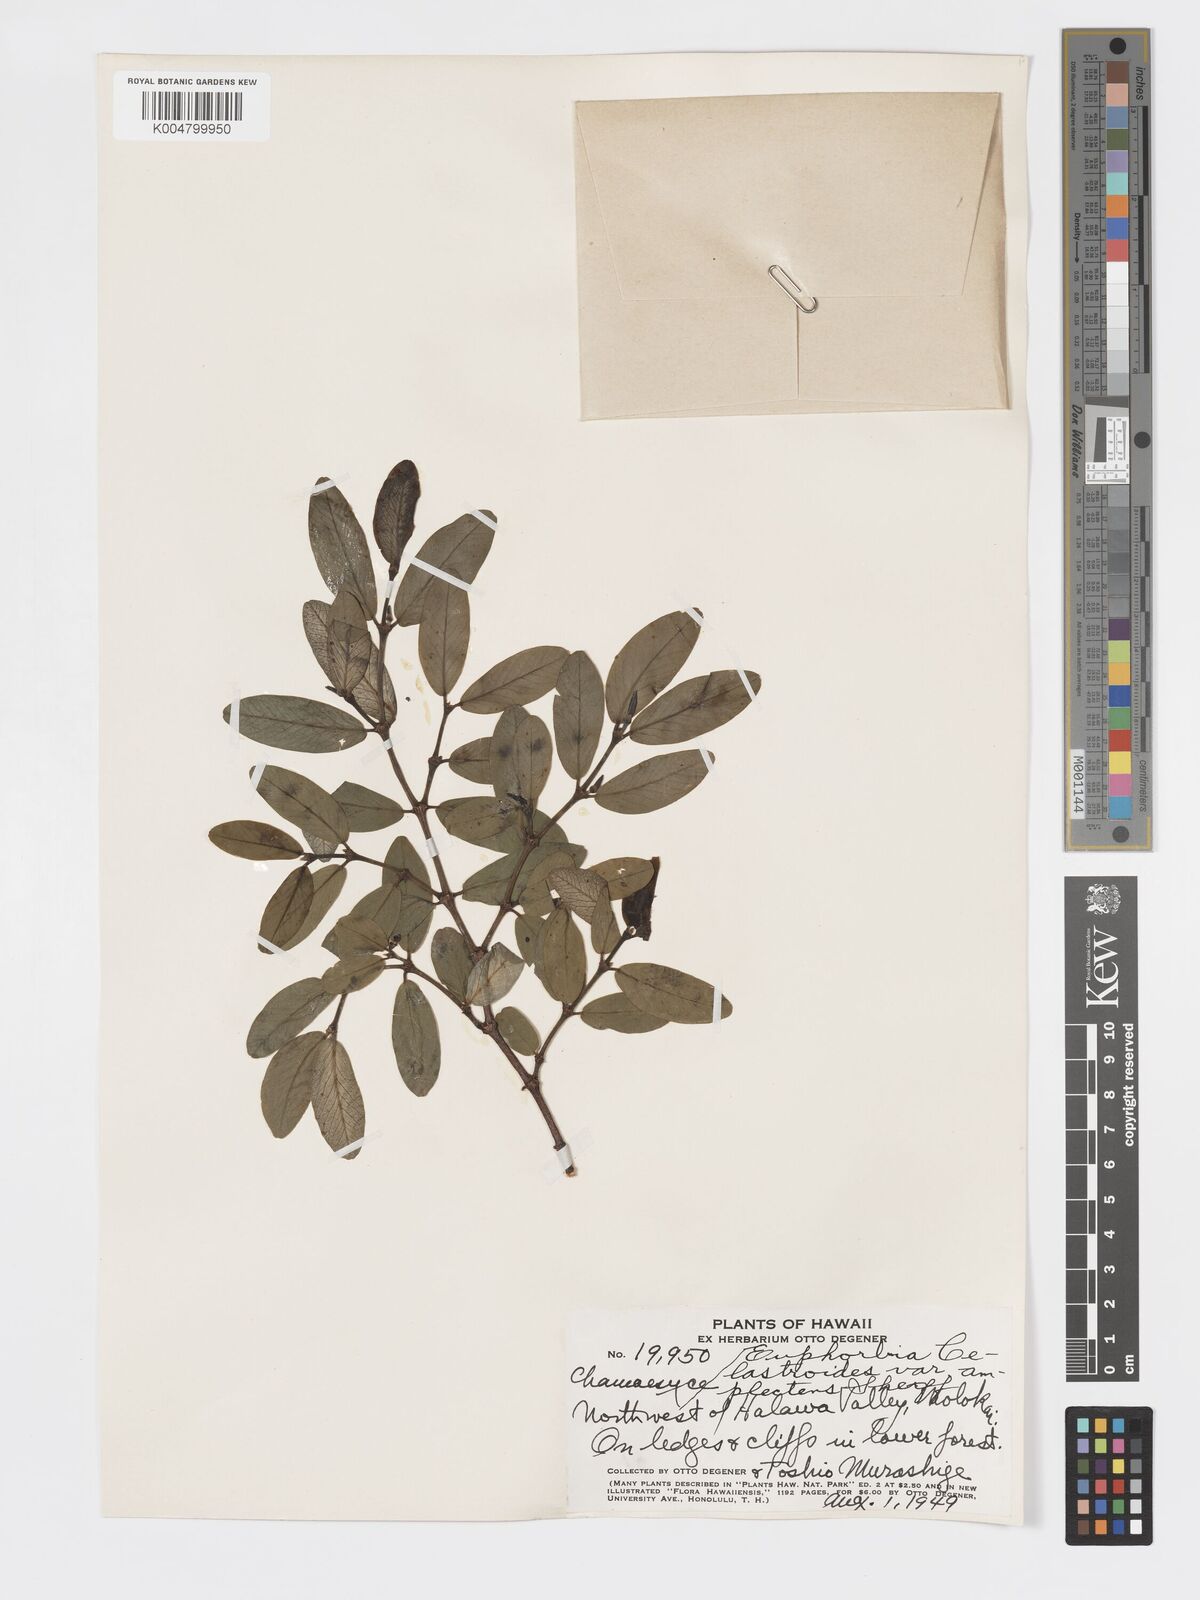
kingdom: Plantae
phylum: Tracheophyta
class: Magnoliopsida
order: Malpighiales
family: Euphorbiaceae
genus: Euphorbia
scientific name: Euphorbia celastroides
